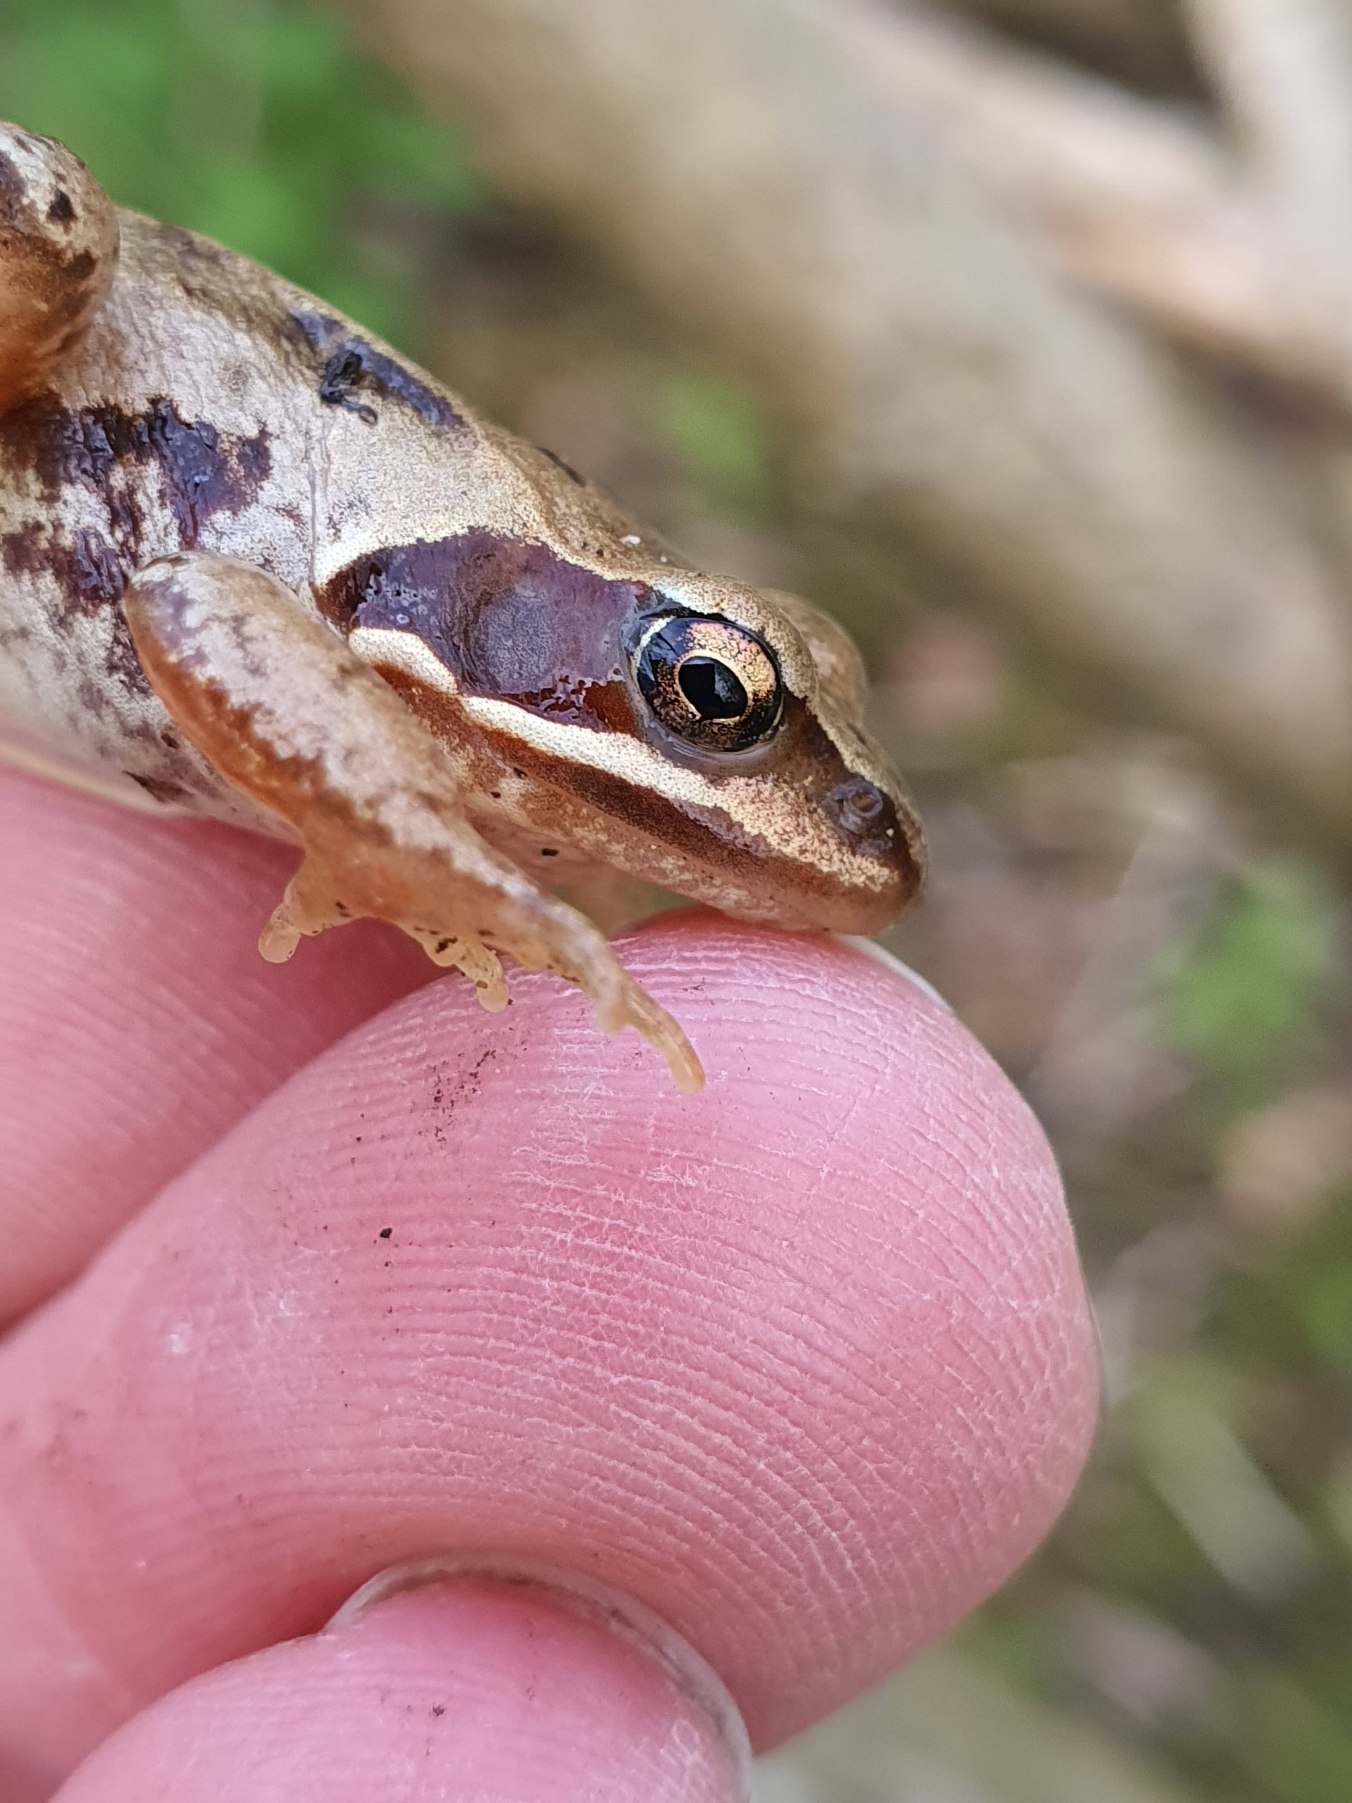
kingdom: Animalia
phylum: Chordata
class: Amphibia
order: Anura
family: Ranidae
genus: Rana
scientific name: Rana arvalis
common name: Spidssnudet frø
